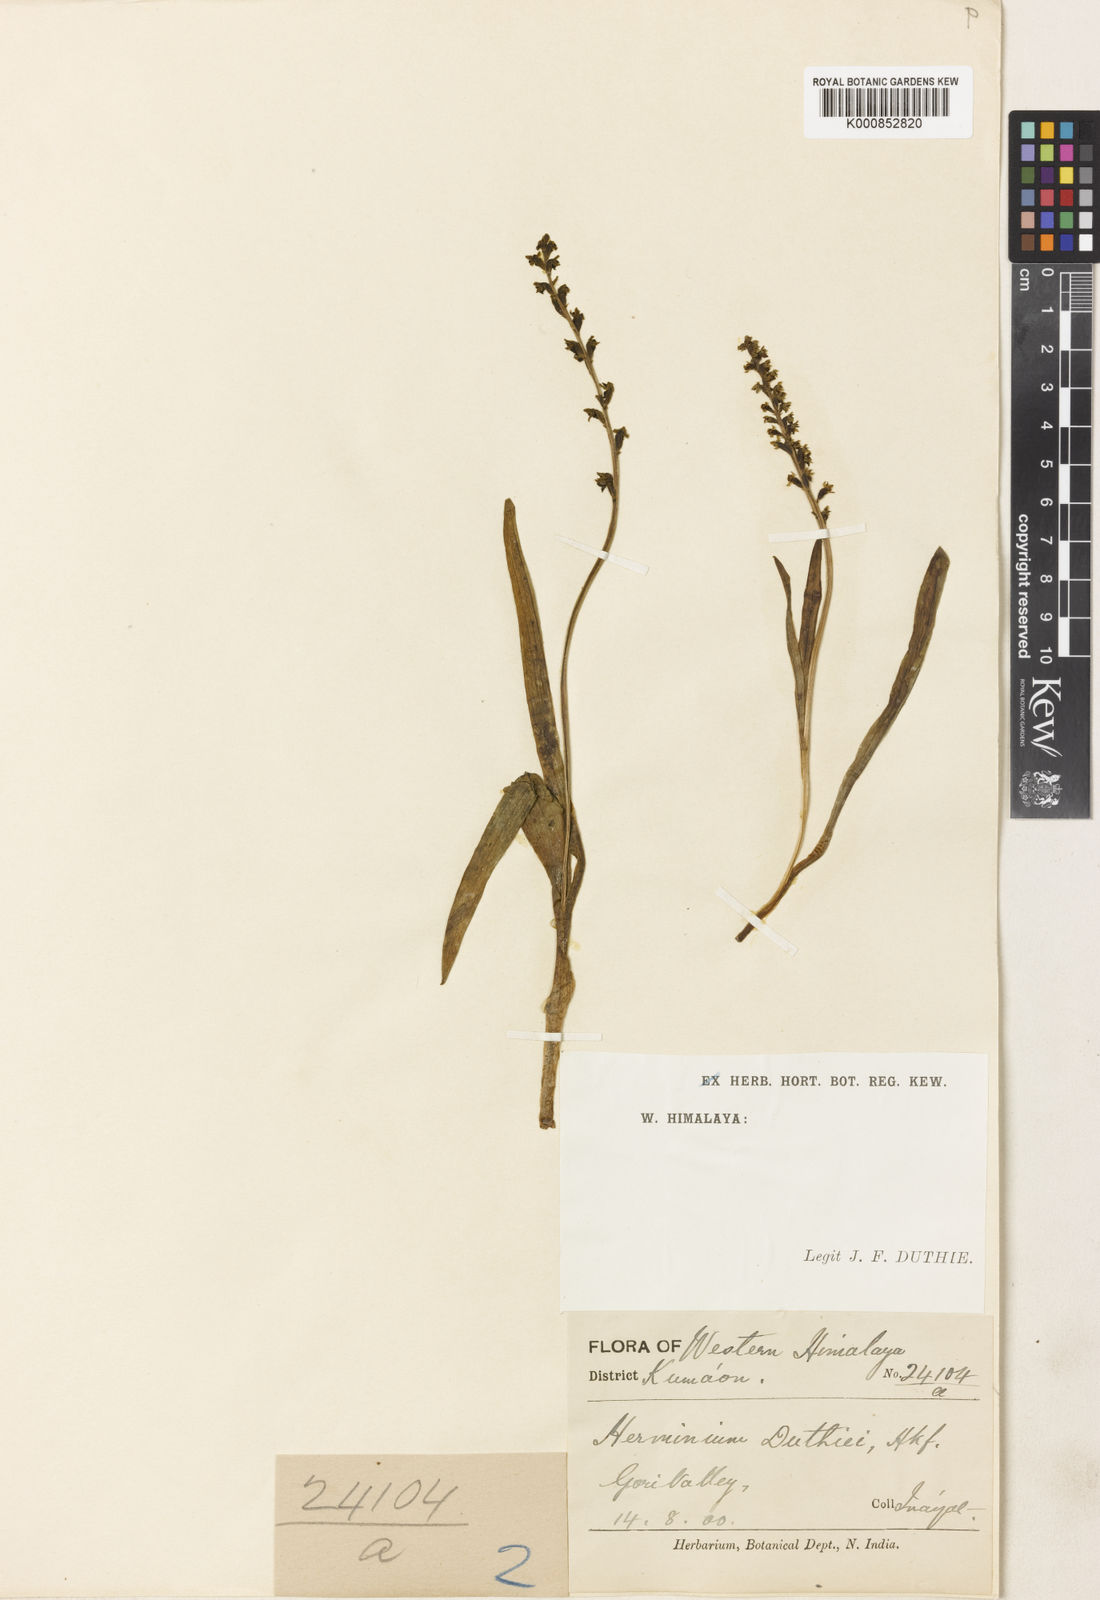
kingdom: Plantae
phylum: Tracheophyta
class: Liliopsida
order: Asparagales
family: Orchidaceae
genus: Herminium
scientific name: Herminium josephi
